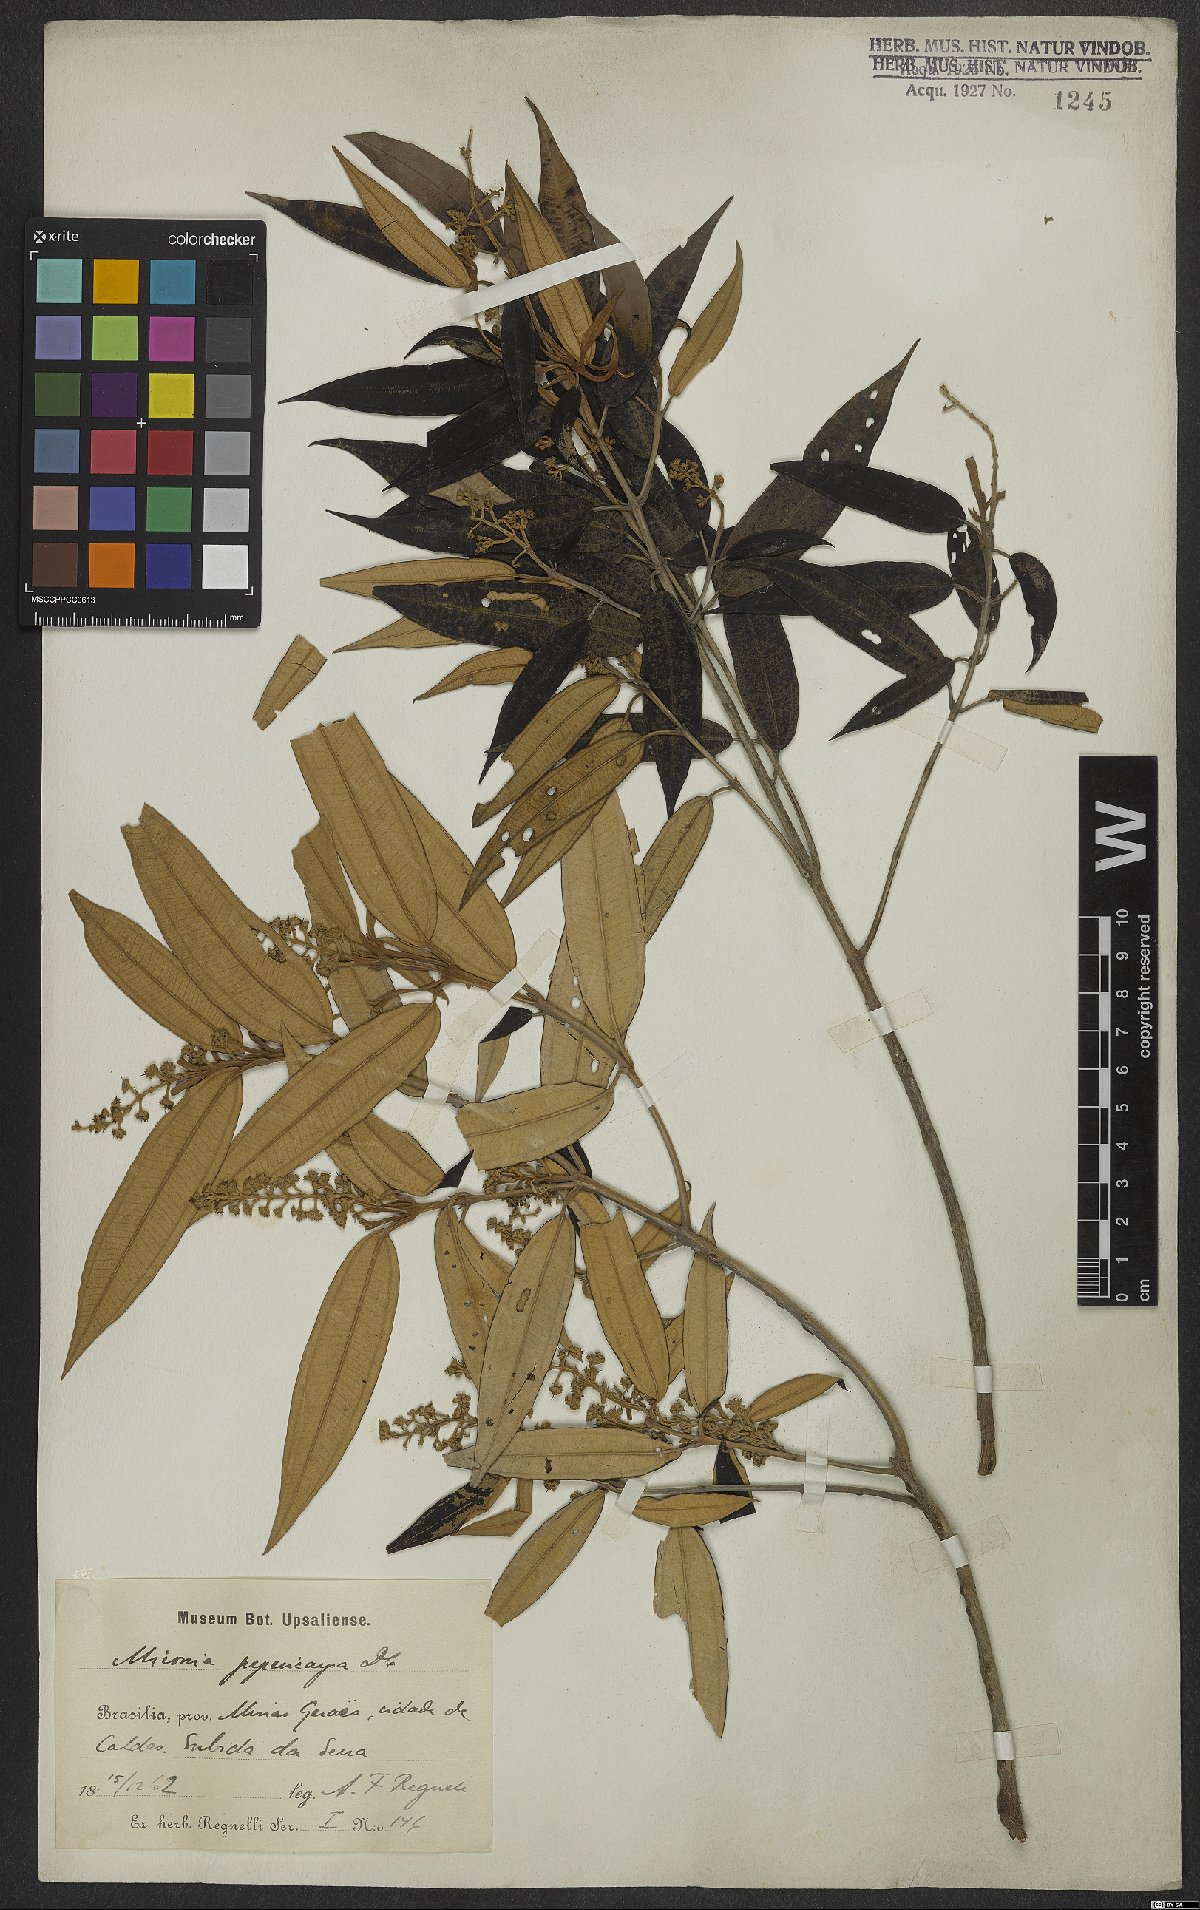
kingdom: Plantae
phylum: Tracheophyta
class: Magnoliopsida
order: Myrtales
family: Melastomataceae
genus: Miconia
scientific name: Miconia pepericarpa
